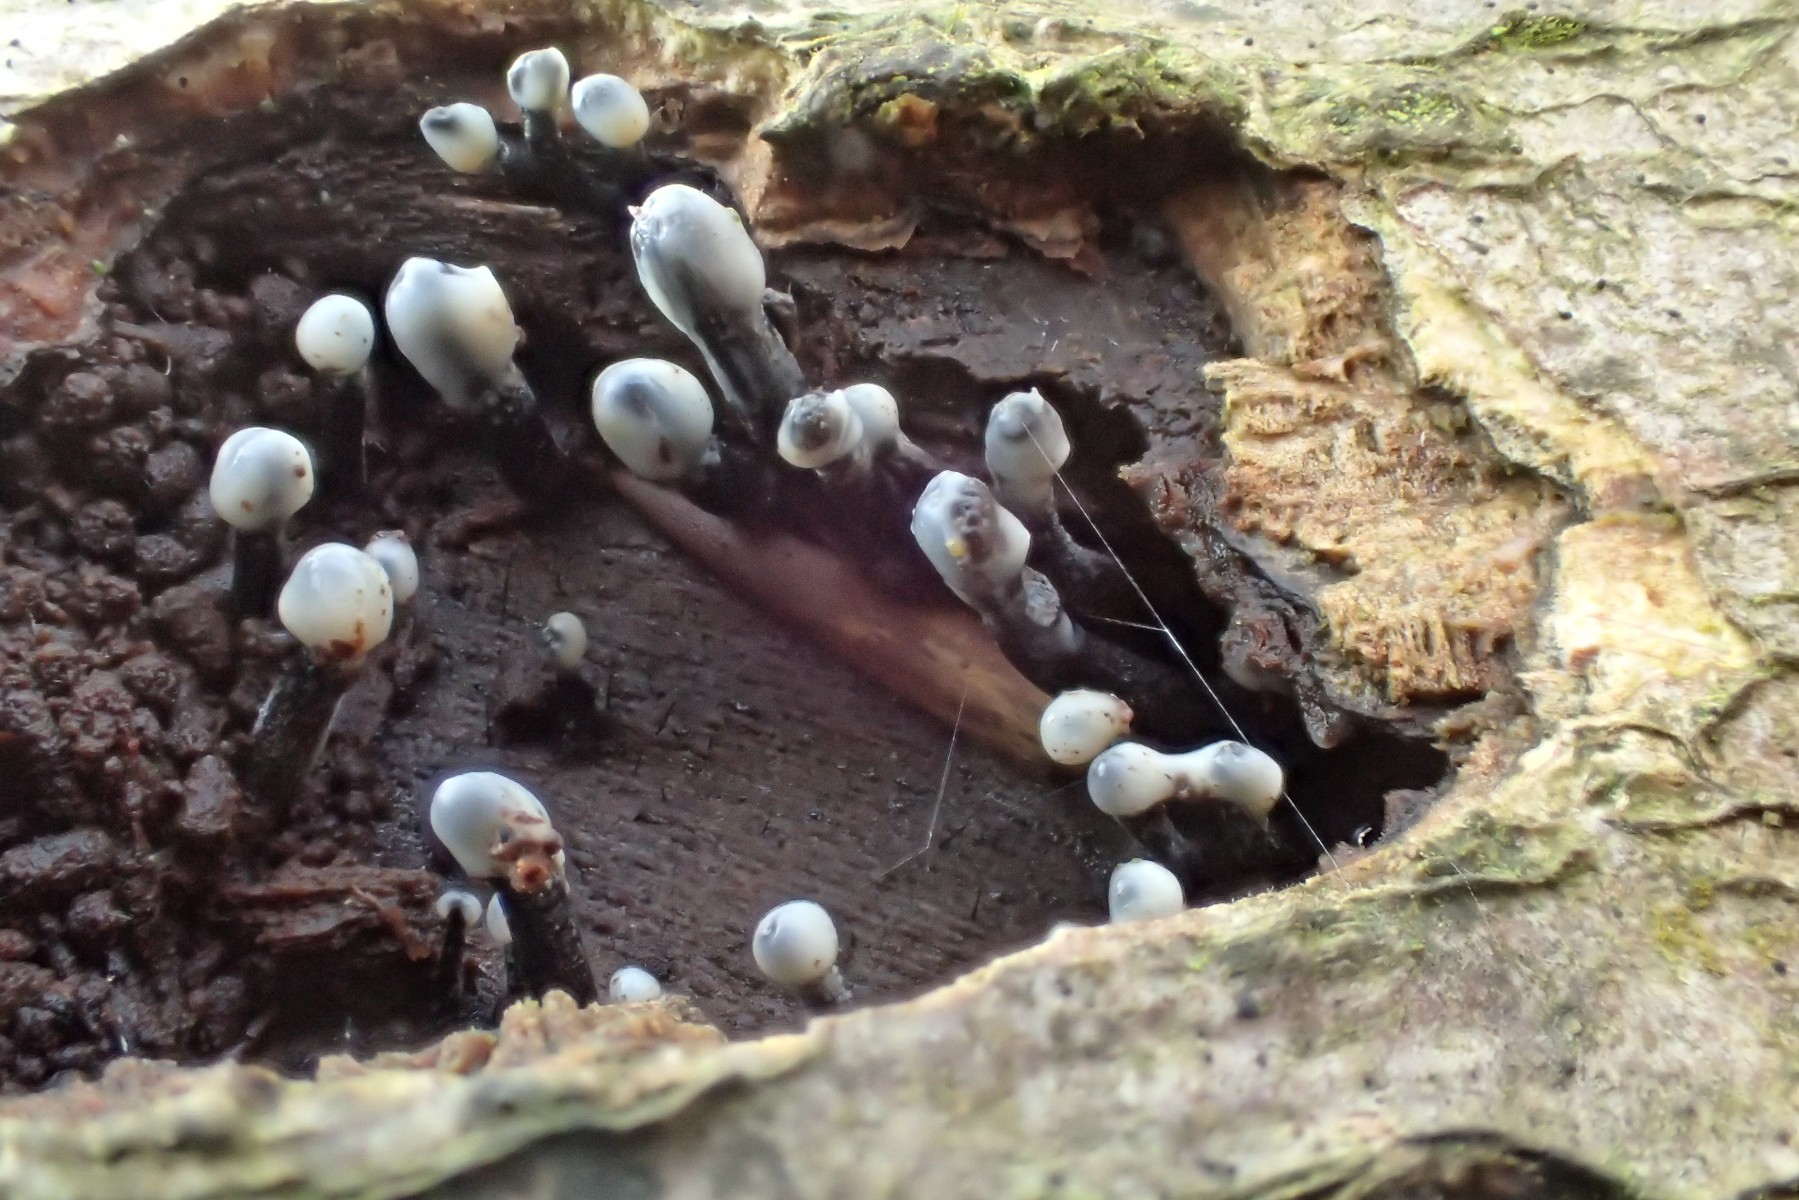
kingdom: Fungi
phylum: Ascomycota
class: Leotiomycetes
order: Helotiales
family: Bulgariaceae
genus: Holwaya
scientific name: Holwaya mucida
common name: lindeskive
